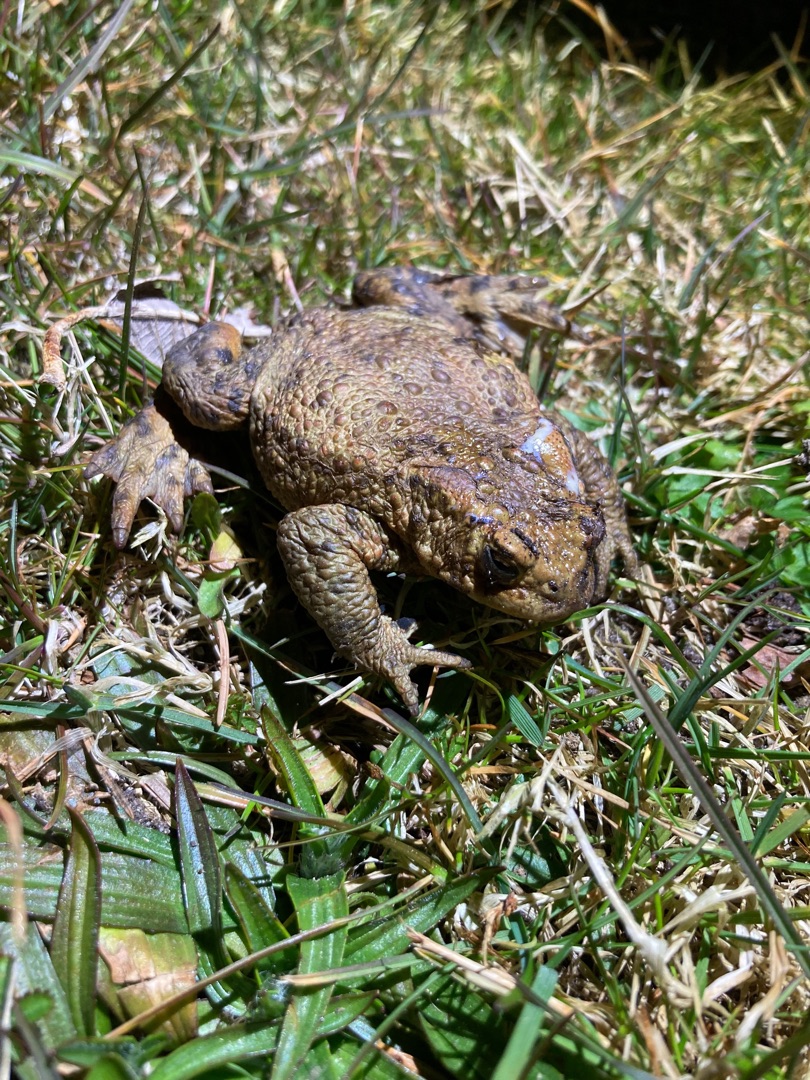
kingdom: Animalia
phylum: Chordata
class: Amphibia
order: Anura
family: Bufonidae
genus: Bufo
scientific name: Bufo bufo
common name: Skrubtudse
